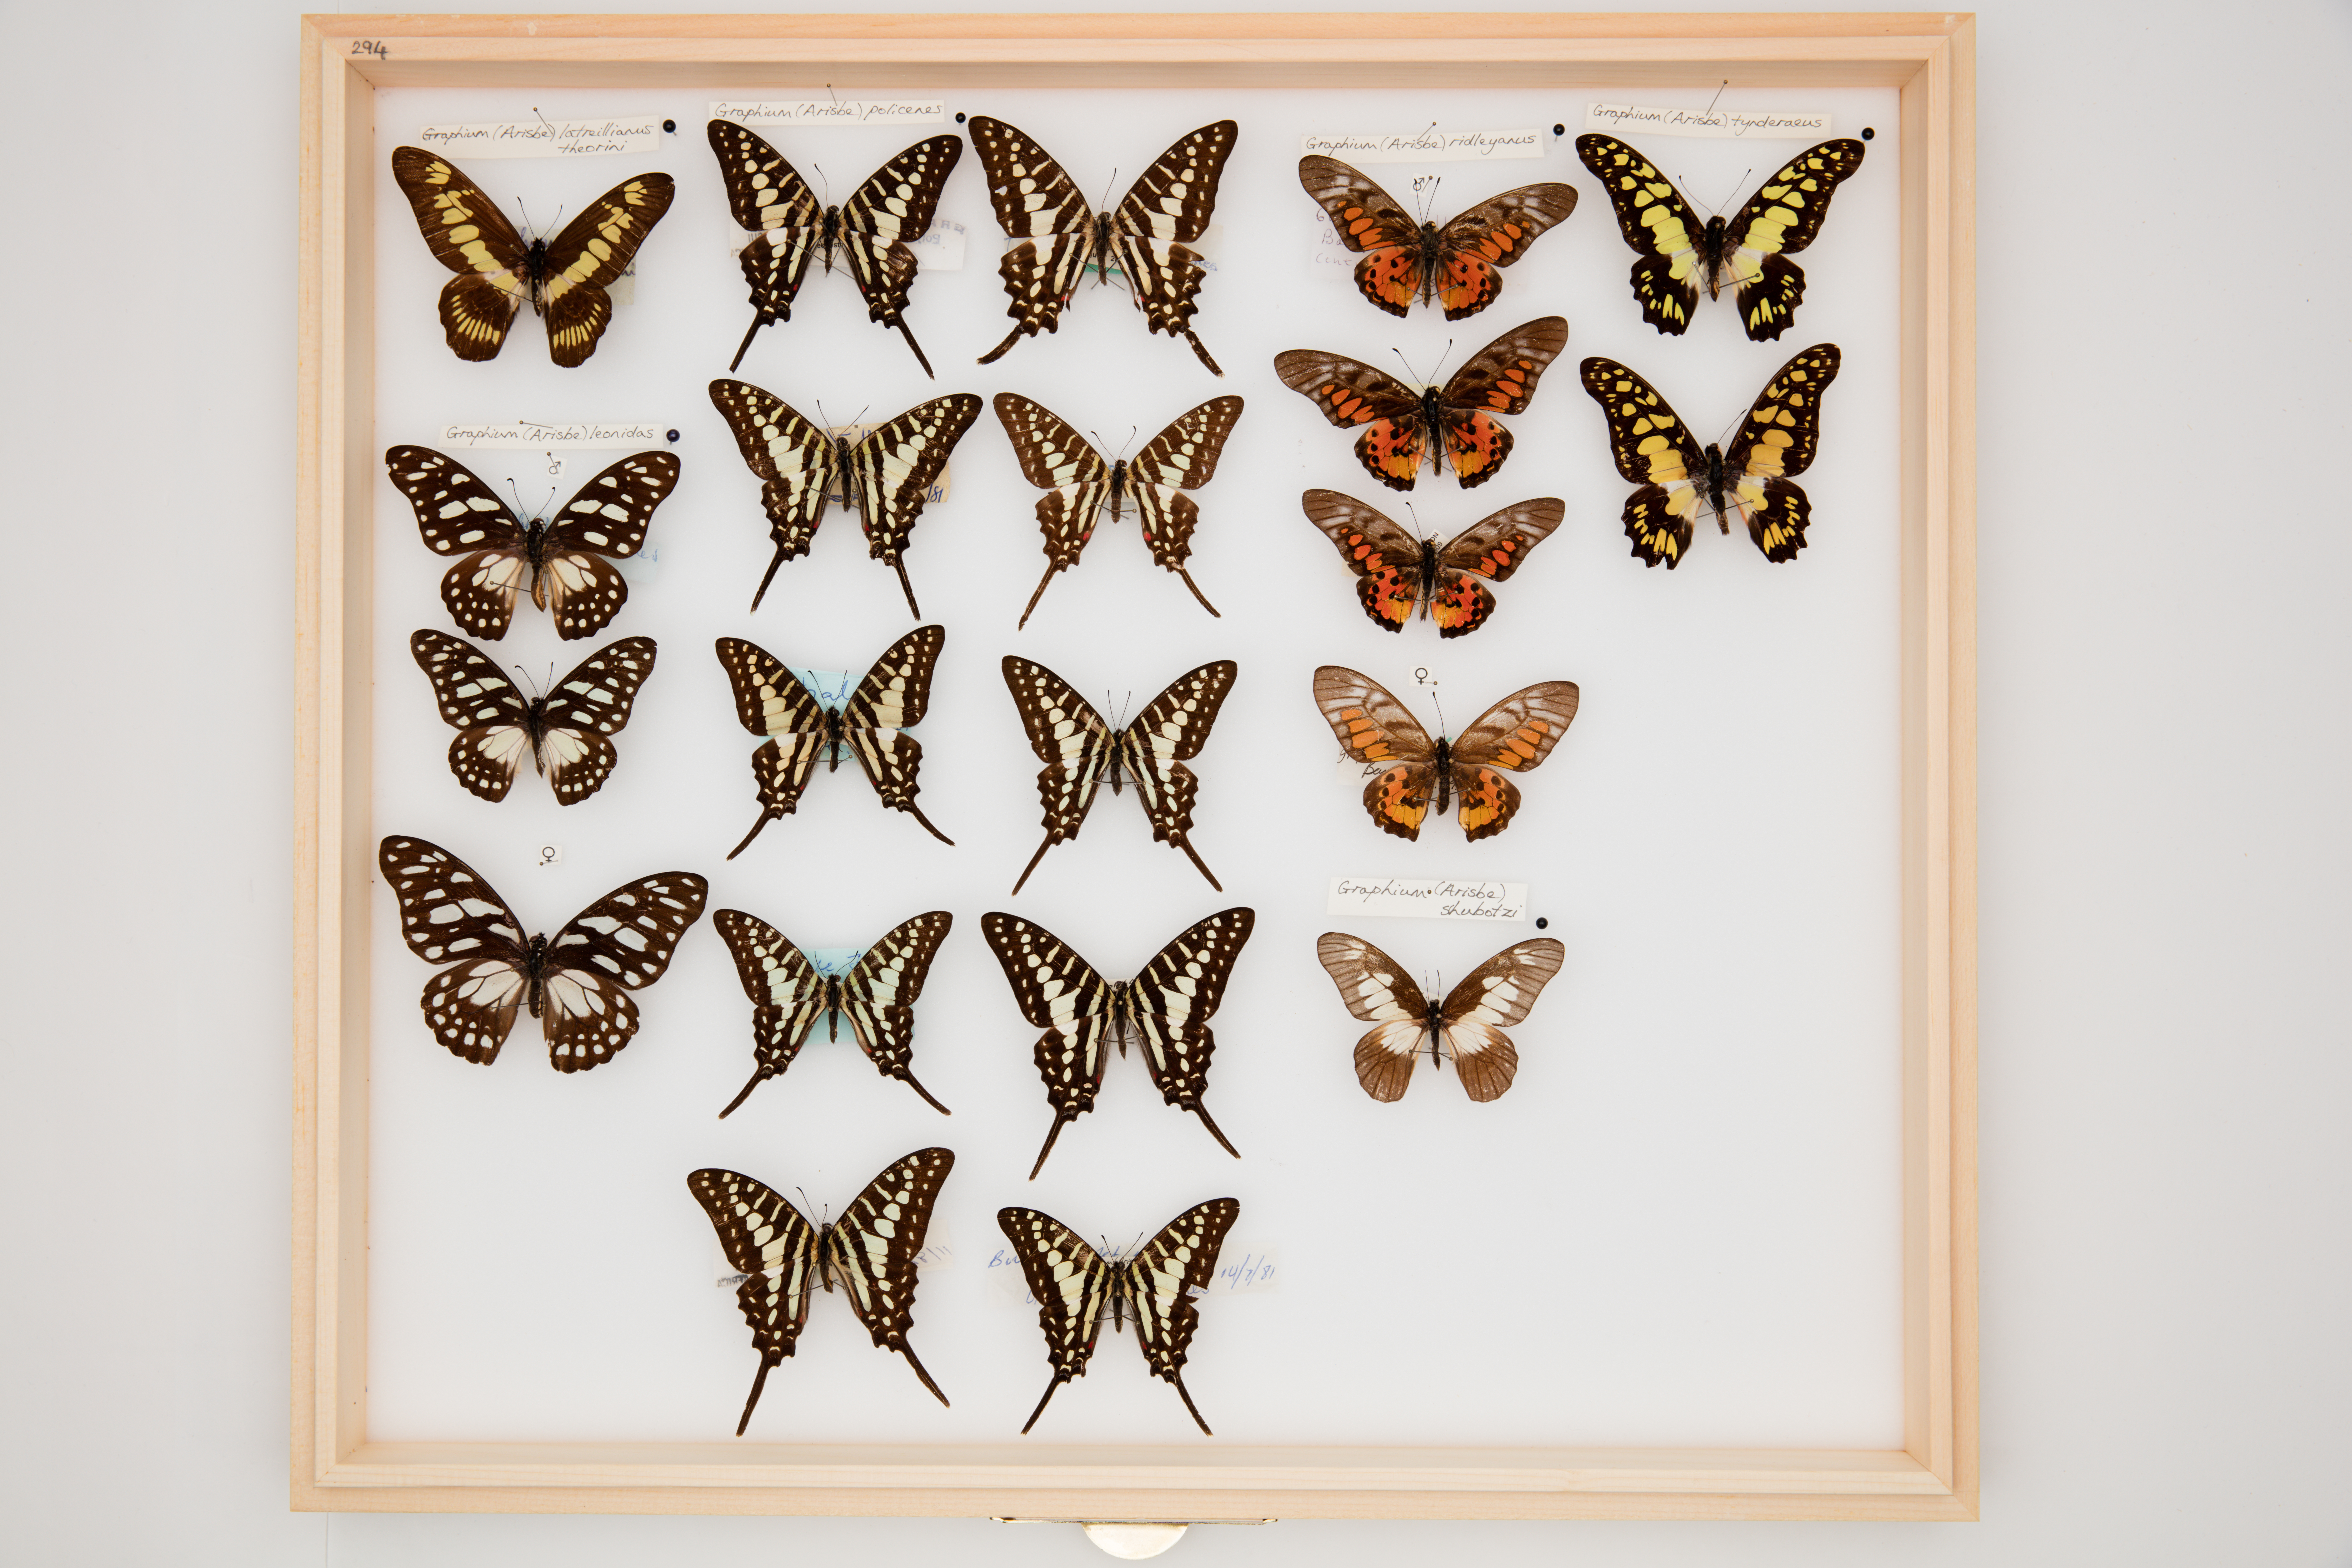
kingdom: Animalia
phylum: Arthropoda
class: Insecta
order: Lepidoptera
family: Papilionidae
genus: Graphium
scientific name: Graphium policenes
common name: Common swordtail
